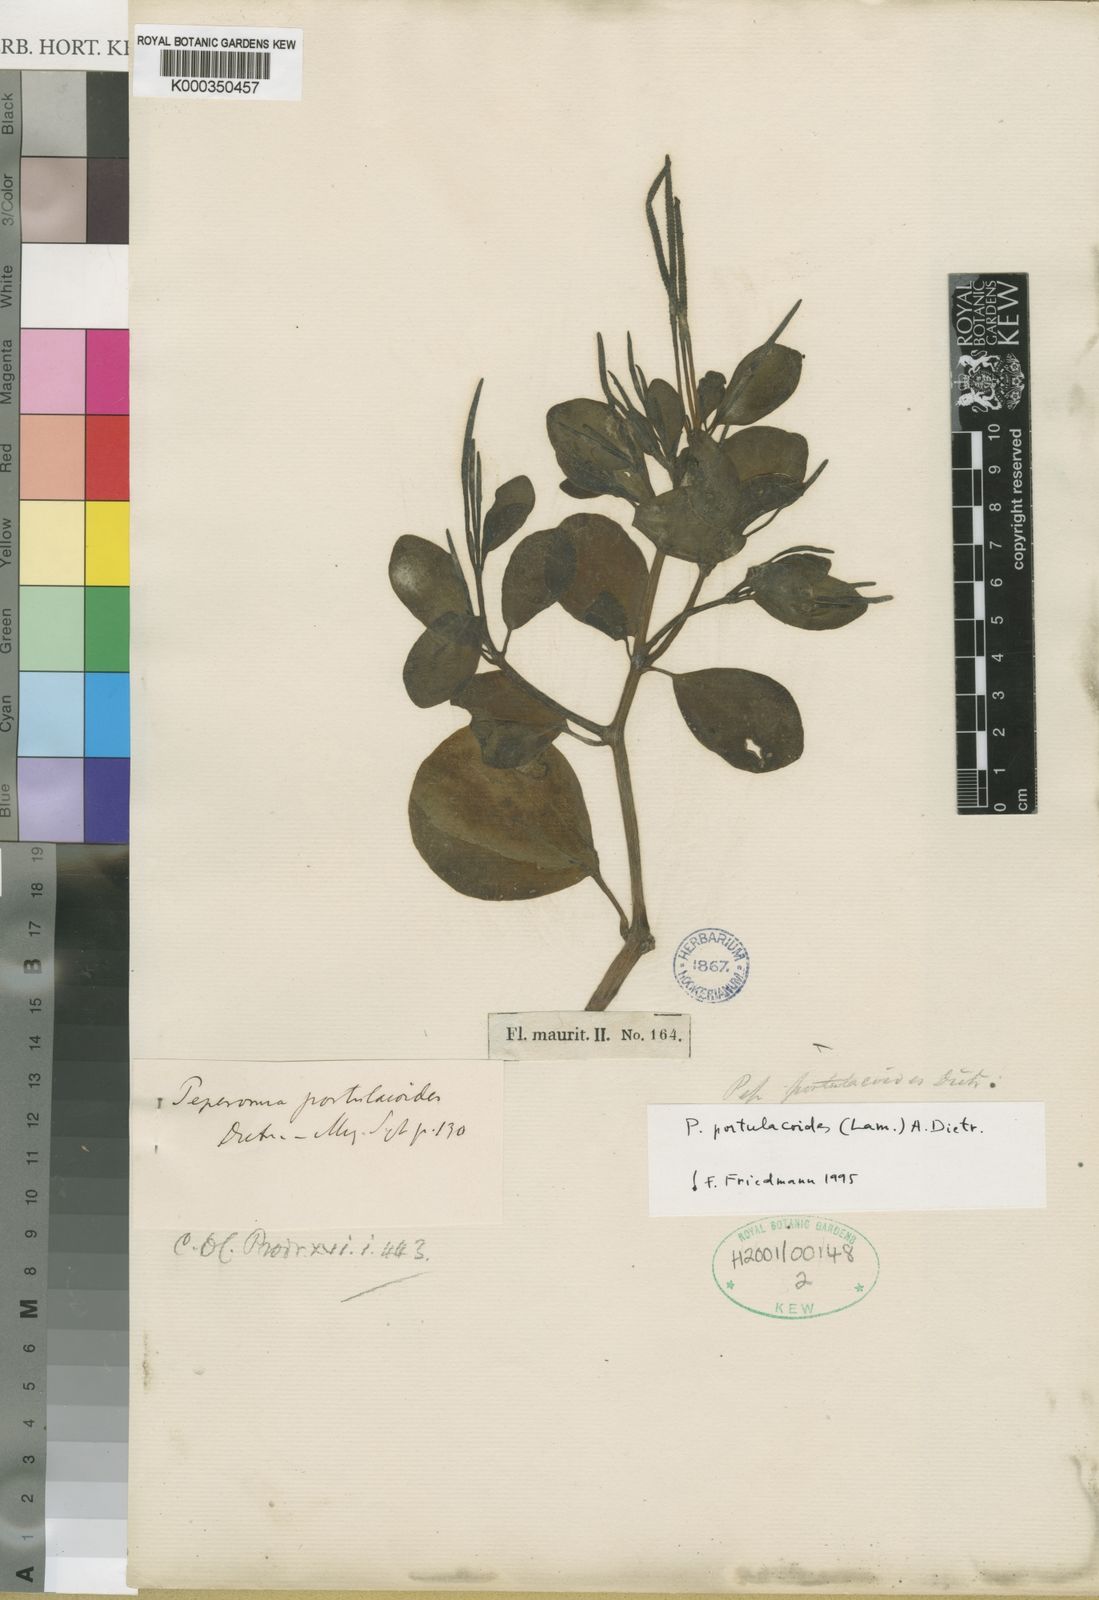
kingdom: Plantae
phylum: Tracheophyta
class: Magnoliopsida
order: Piperales
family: Piperaceae
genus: Peperomia
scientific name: Peperomia portulacoides
